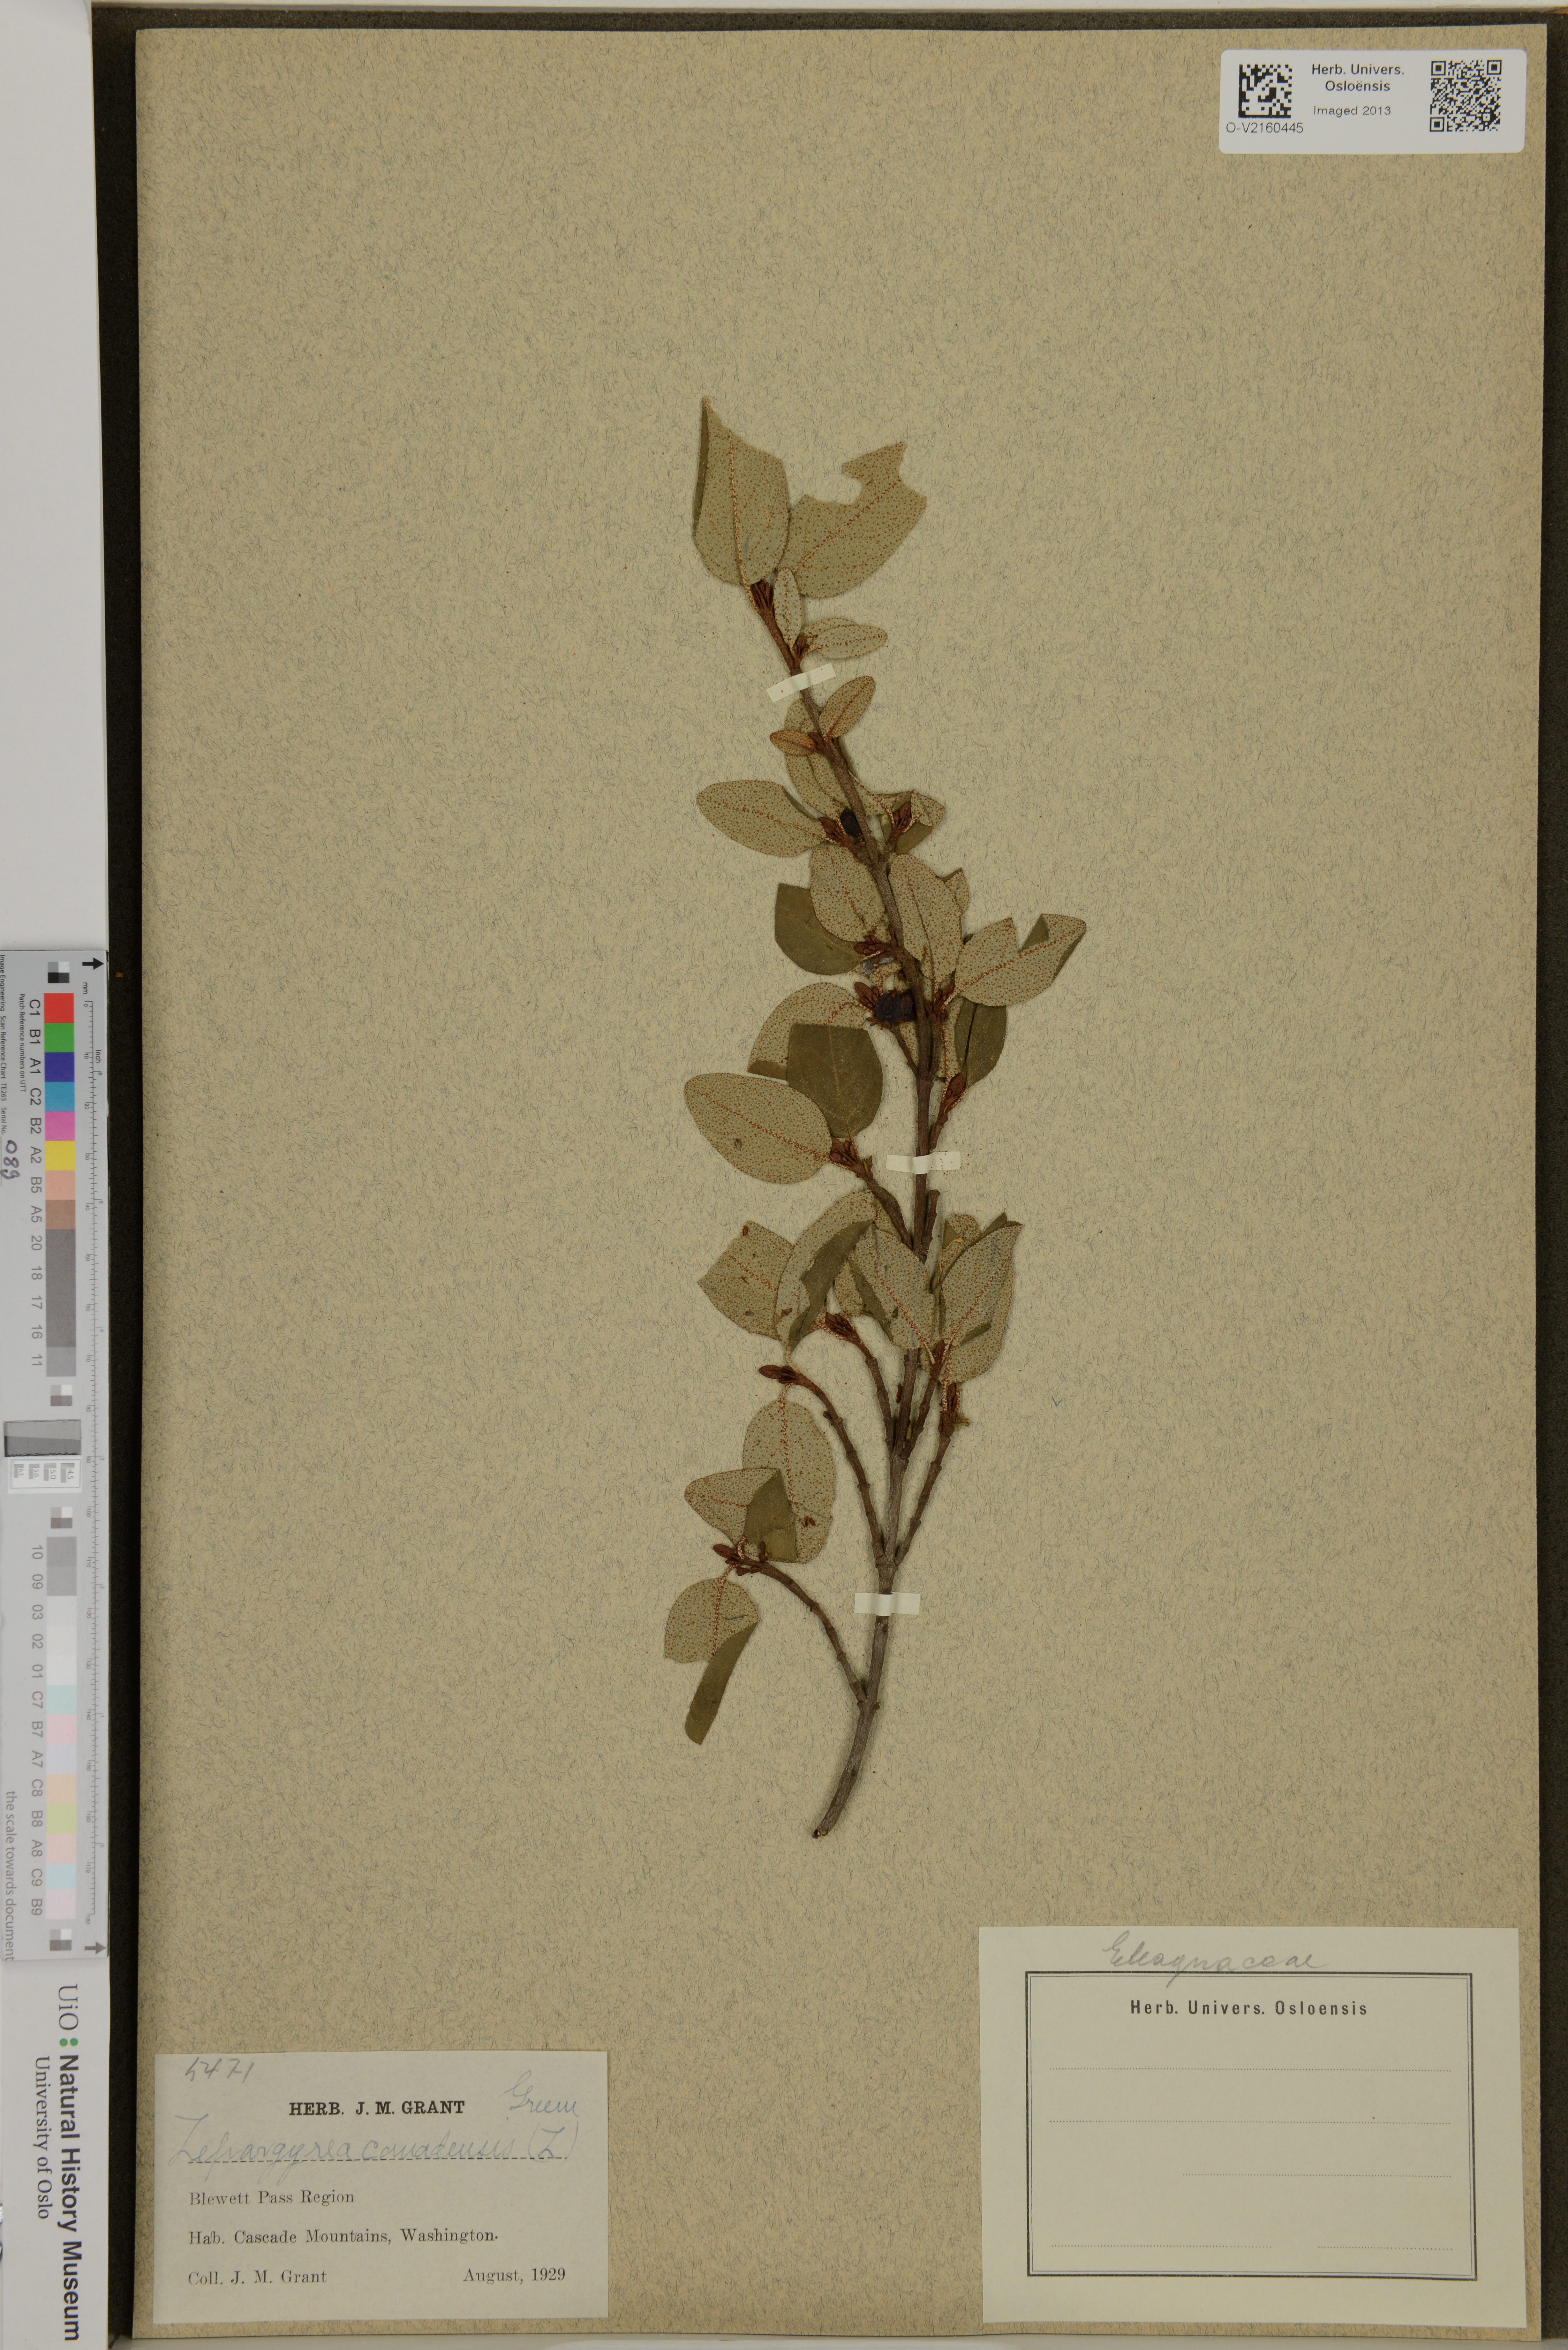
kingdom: Plantae
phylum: Tracheophyta
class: Magnoliopsida
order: Rosales
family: Elaeagnaceae
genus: Shepherdia
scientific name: Shepherdia canadensis
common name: Soapberry
